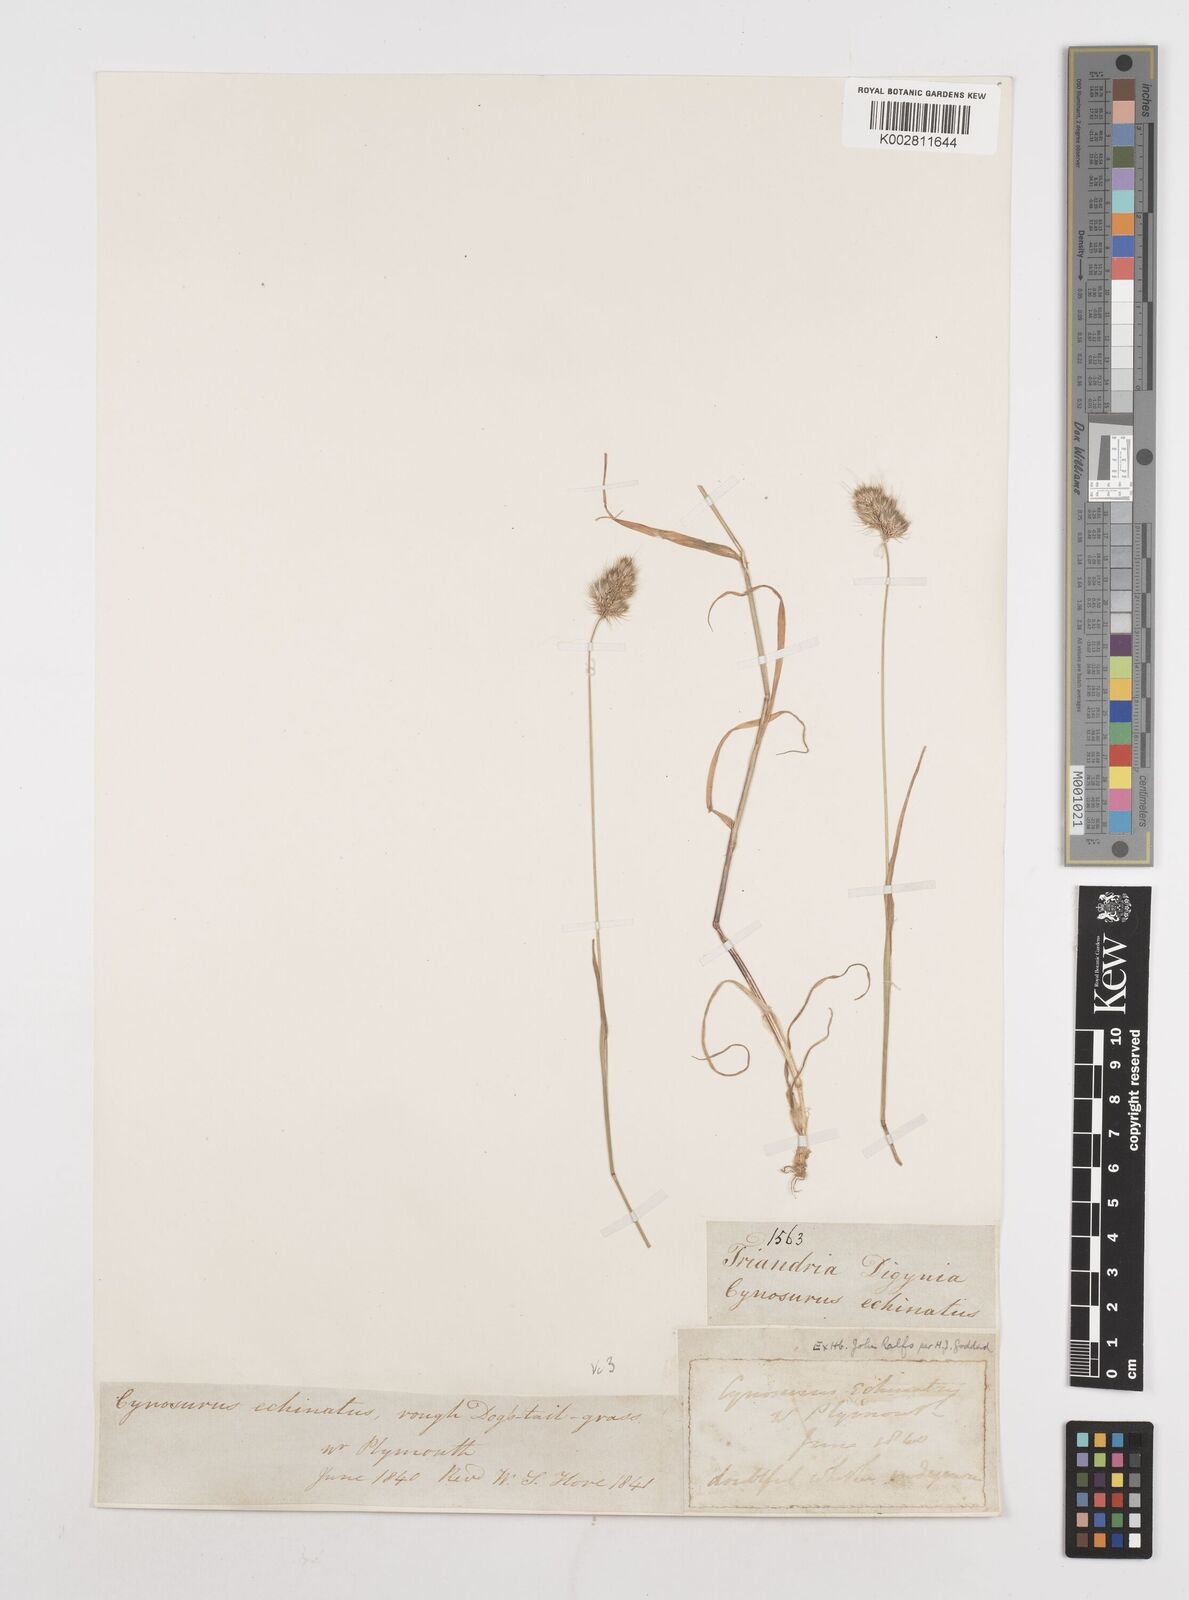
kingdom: Plantae
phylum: Tracheophyta
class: Liliopsida
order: Poales
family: Poaceae
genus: Cynosurus
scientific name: Cynosurus echinatus
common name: Rough dog's-tail
